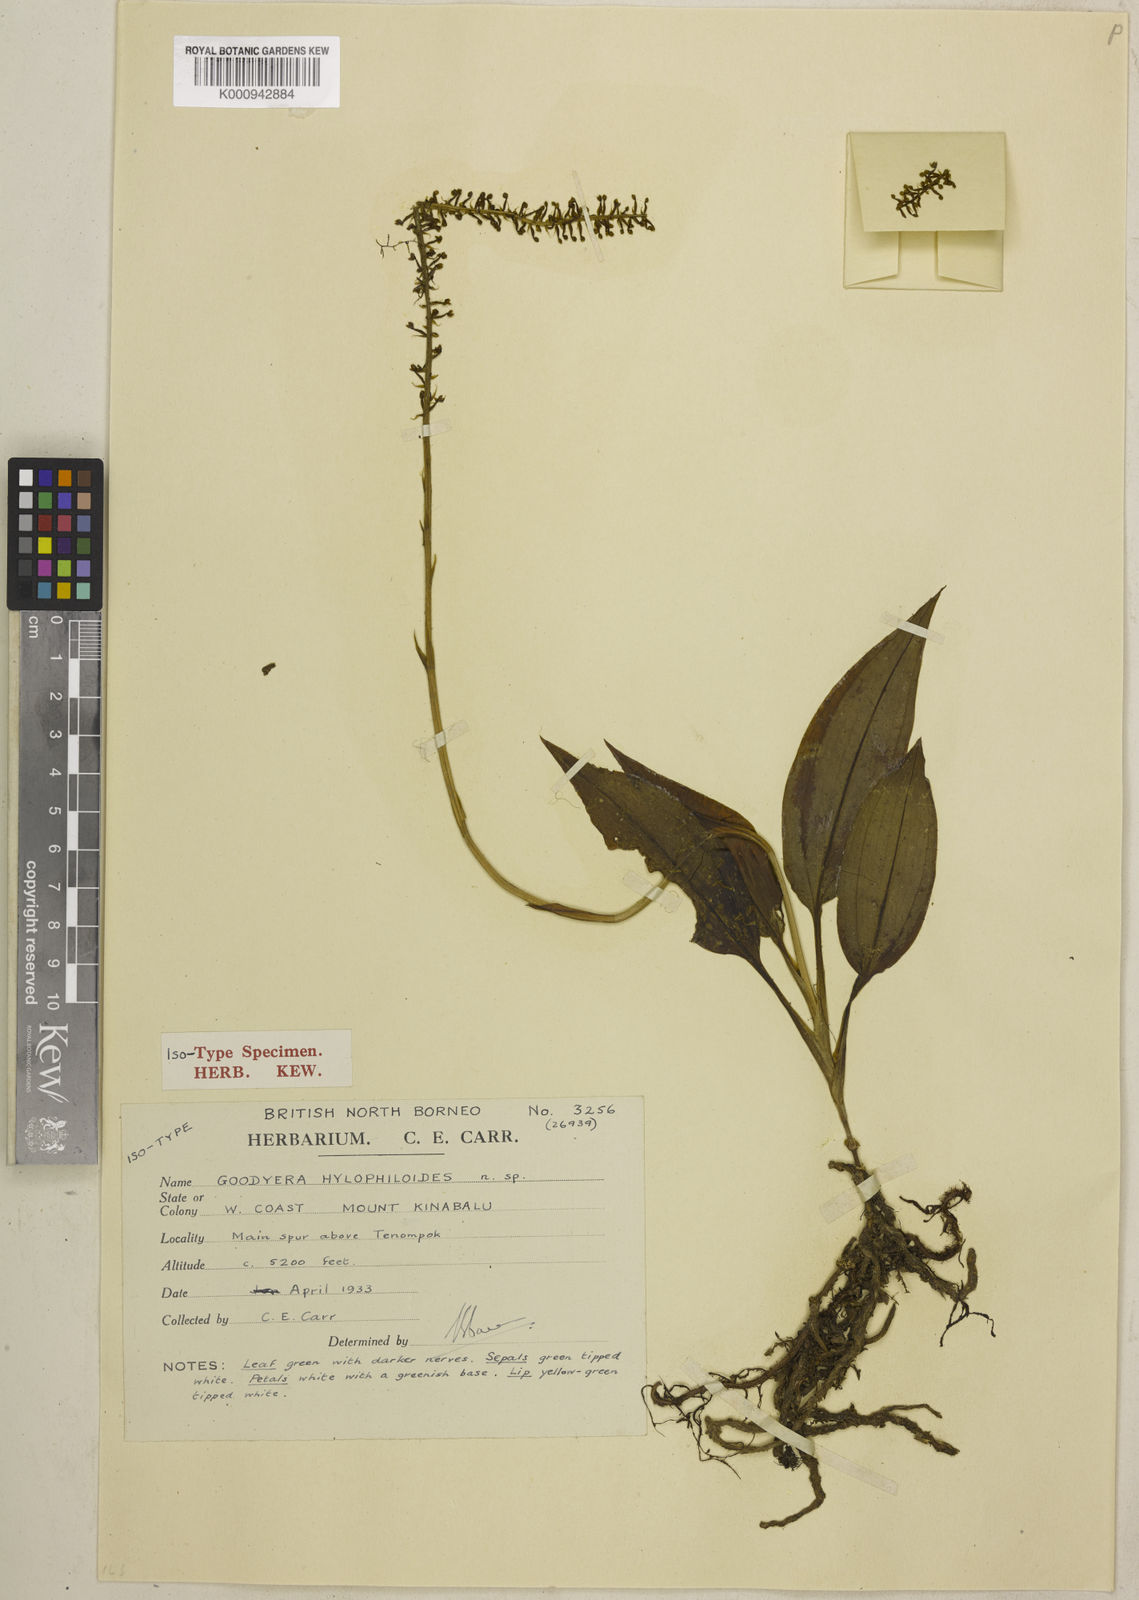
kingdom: Plantae
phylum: Tracheophyta
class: Liliopsida
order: Asparagales
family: Orchidaceae
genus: Hetaeria
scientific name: Hetaeria hylophiloides
